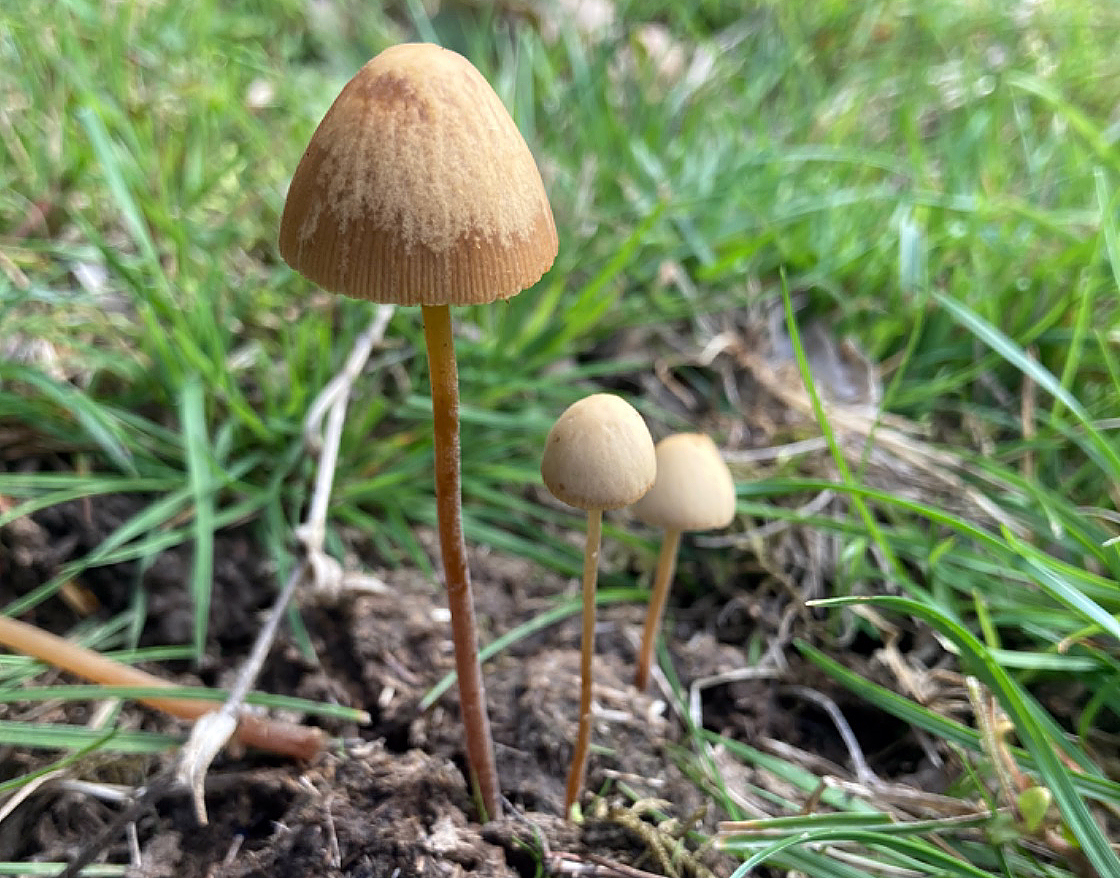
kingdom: Fungi
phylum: Basidiomycota
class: Agaricomycetes
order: Agaricales
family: Bolbitiaceae
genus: Conocybe
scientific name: Conocybe pubescens
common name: gødnings-keglehat
